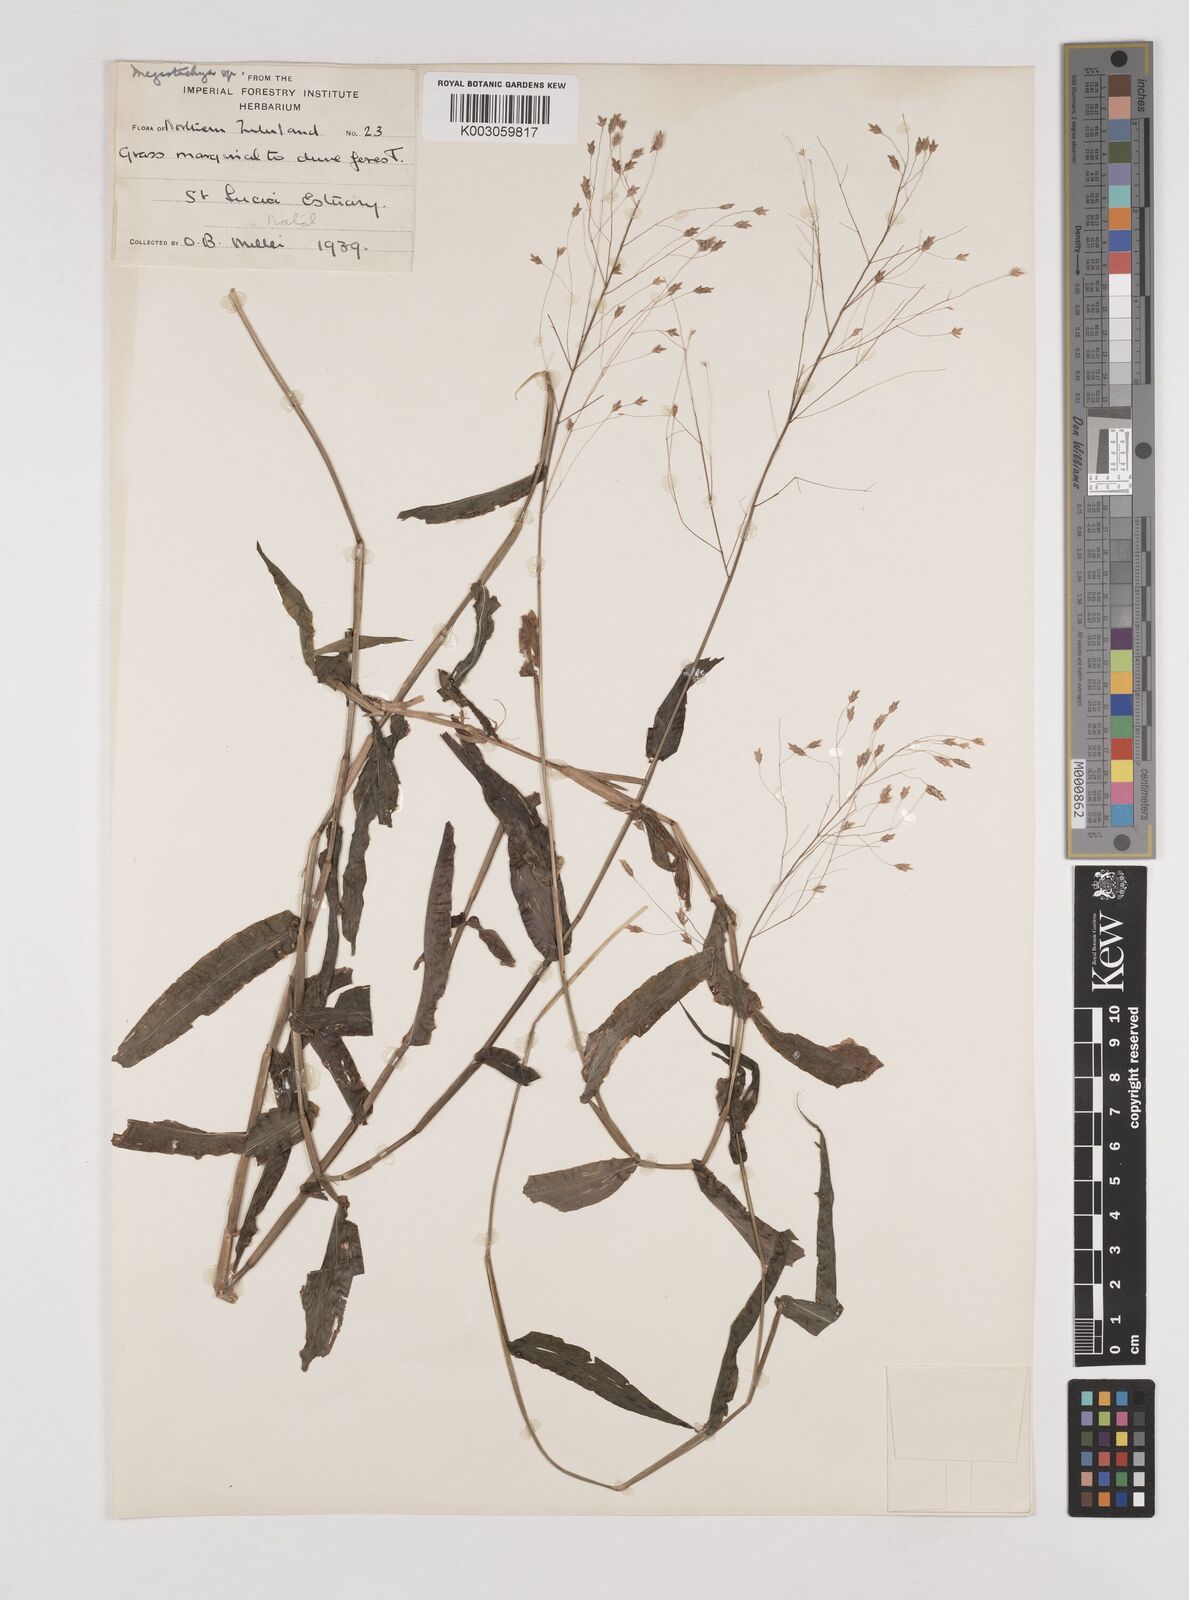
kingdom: Plantae
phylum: Tracheophyta
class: Liliopsida
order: Poales
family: Poaceae
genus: Megastachya
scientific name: Megastachya mucronata
